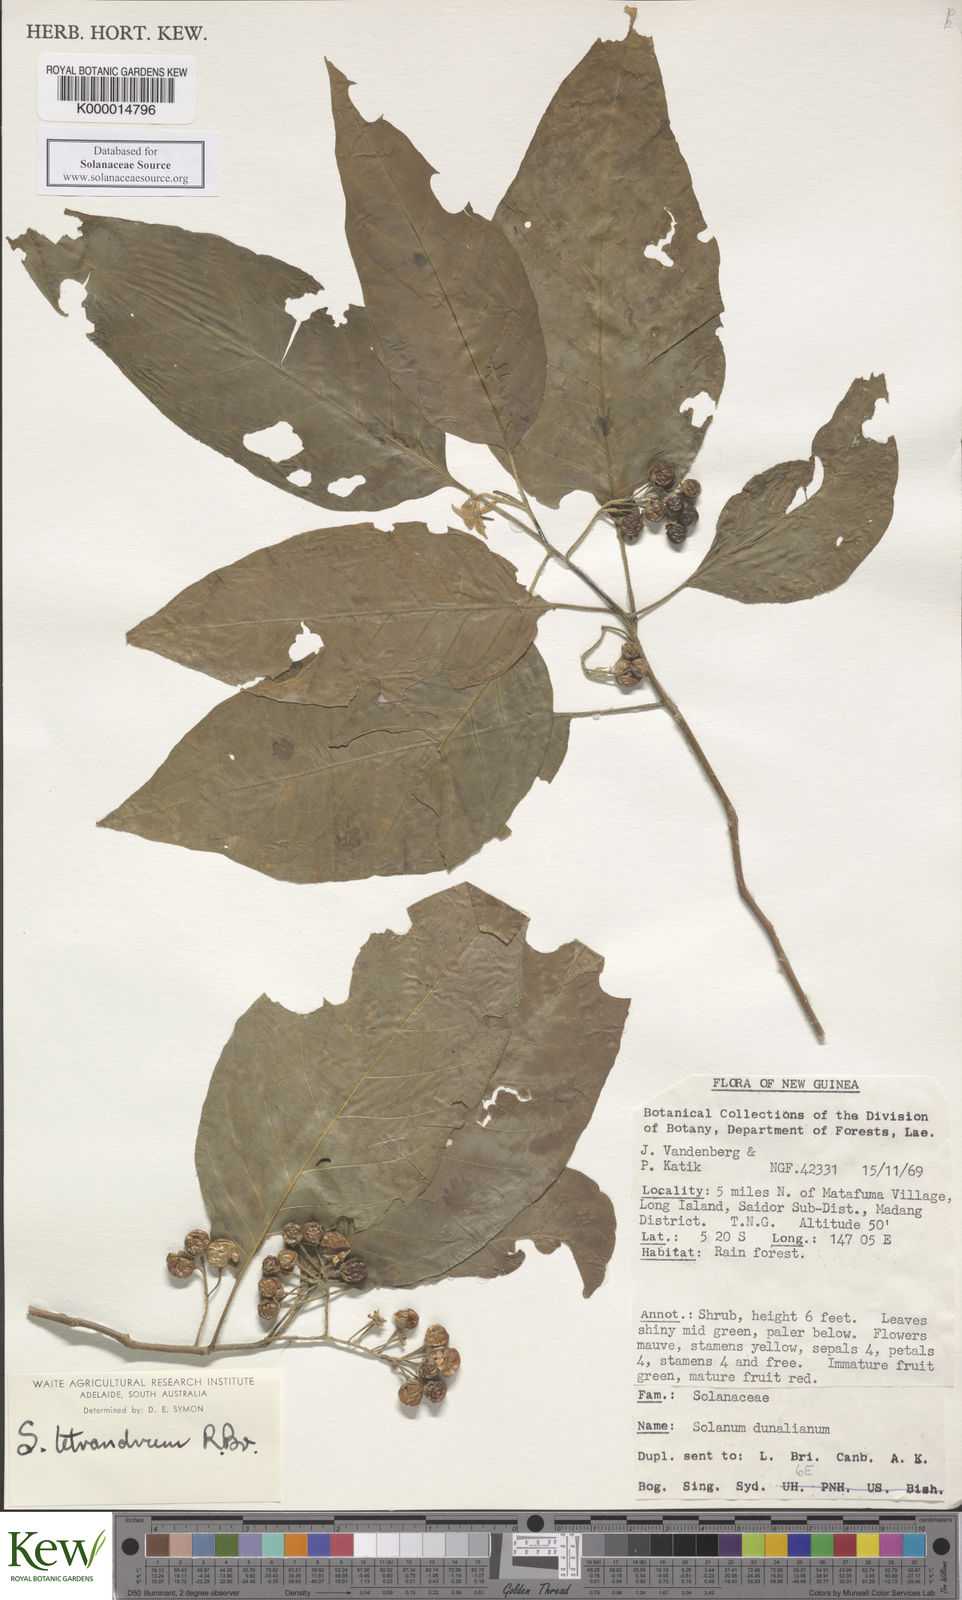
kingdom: Plantae
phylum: Tracheophyta
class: Magnoliopsida
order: Solanales
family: Solanaceae
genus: Solanum
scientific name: Solanum peekelii
